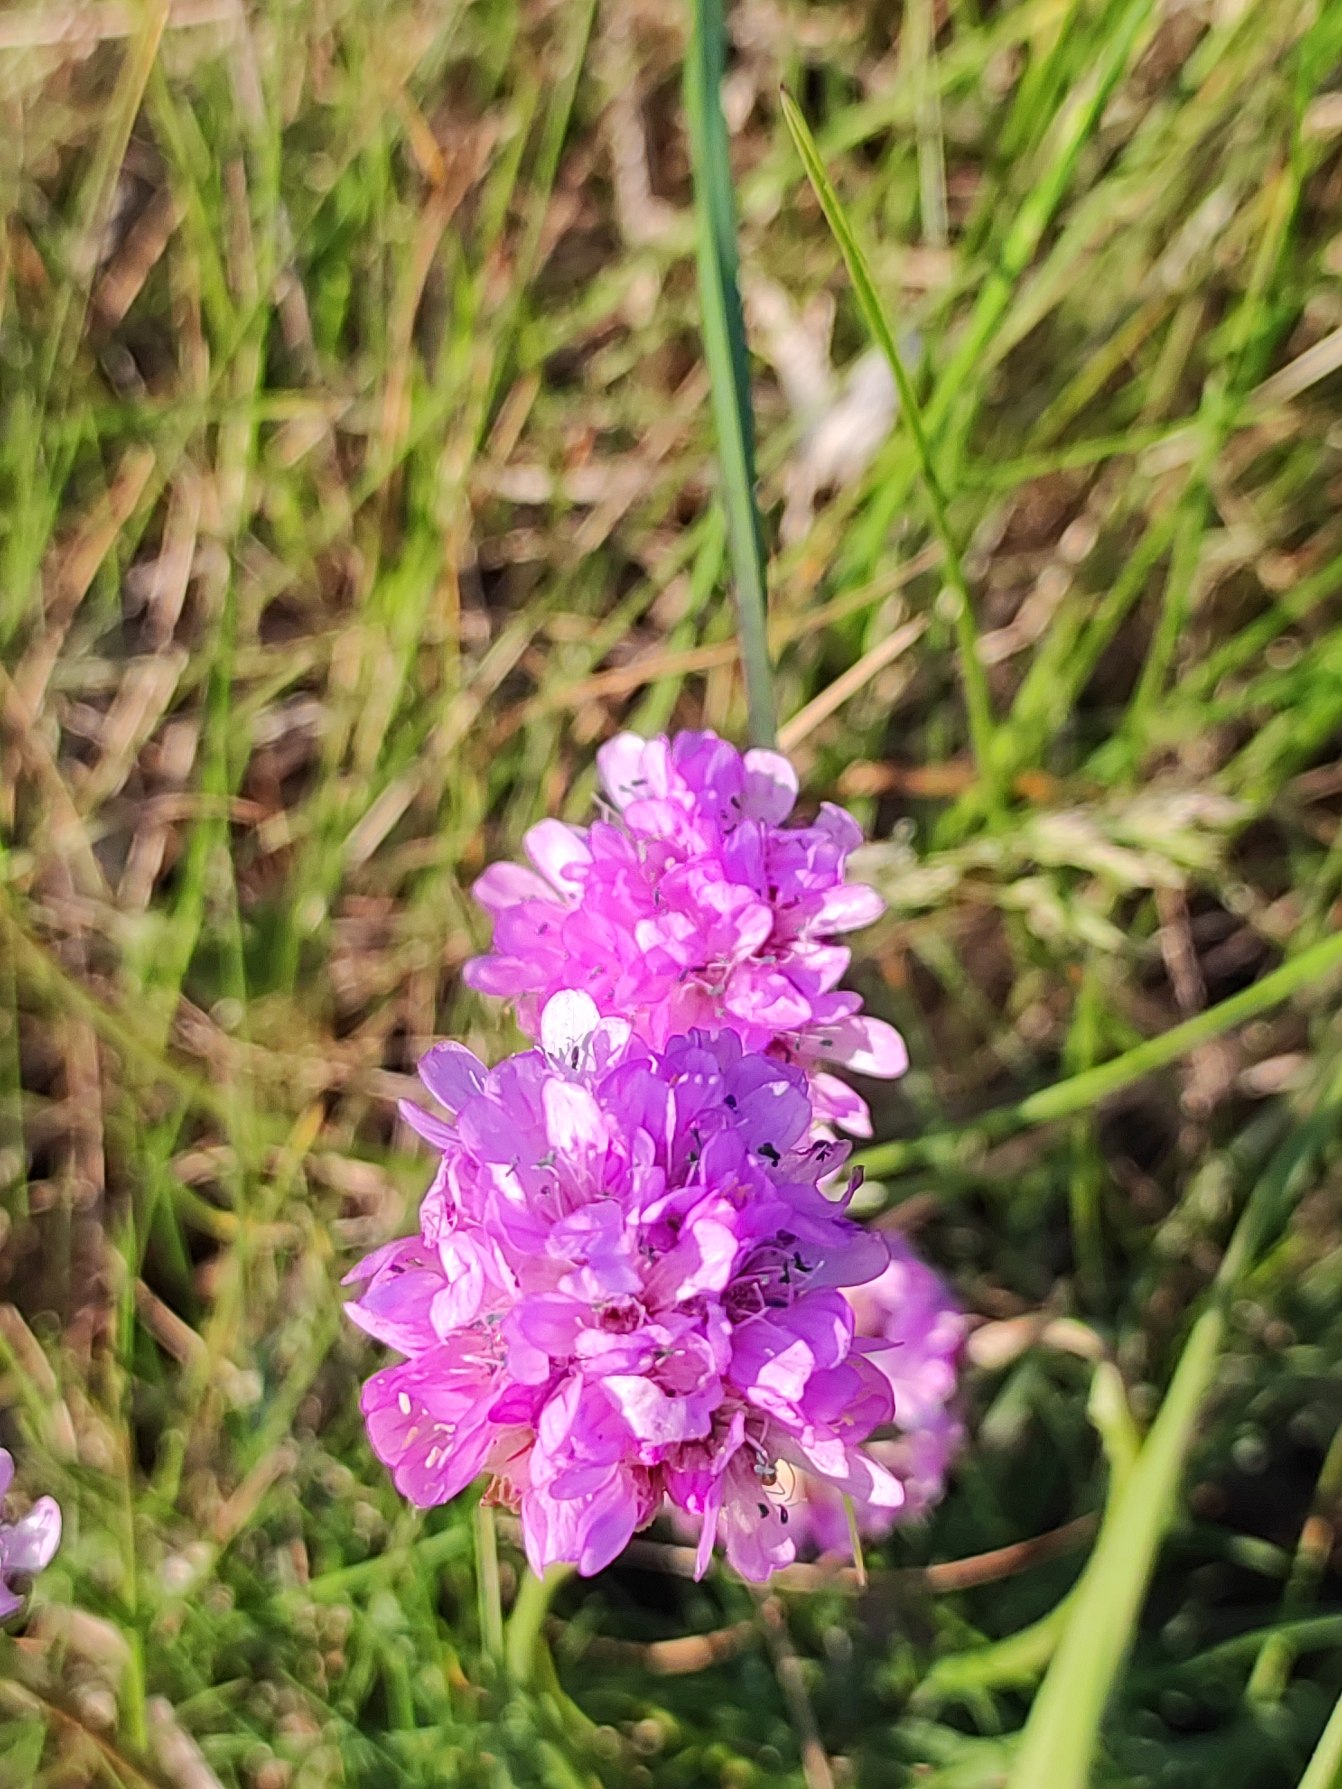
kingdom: Plantae
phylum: Tracheophyta
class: Magnoliopsida
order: Caryophyllales
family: Plumbaginaceae
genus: Armeria
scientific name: Armeria maritima
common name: Engelskgræs
